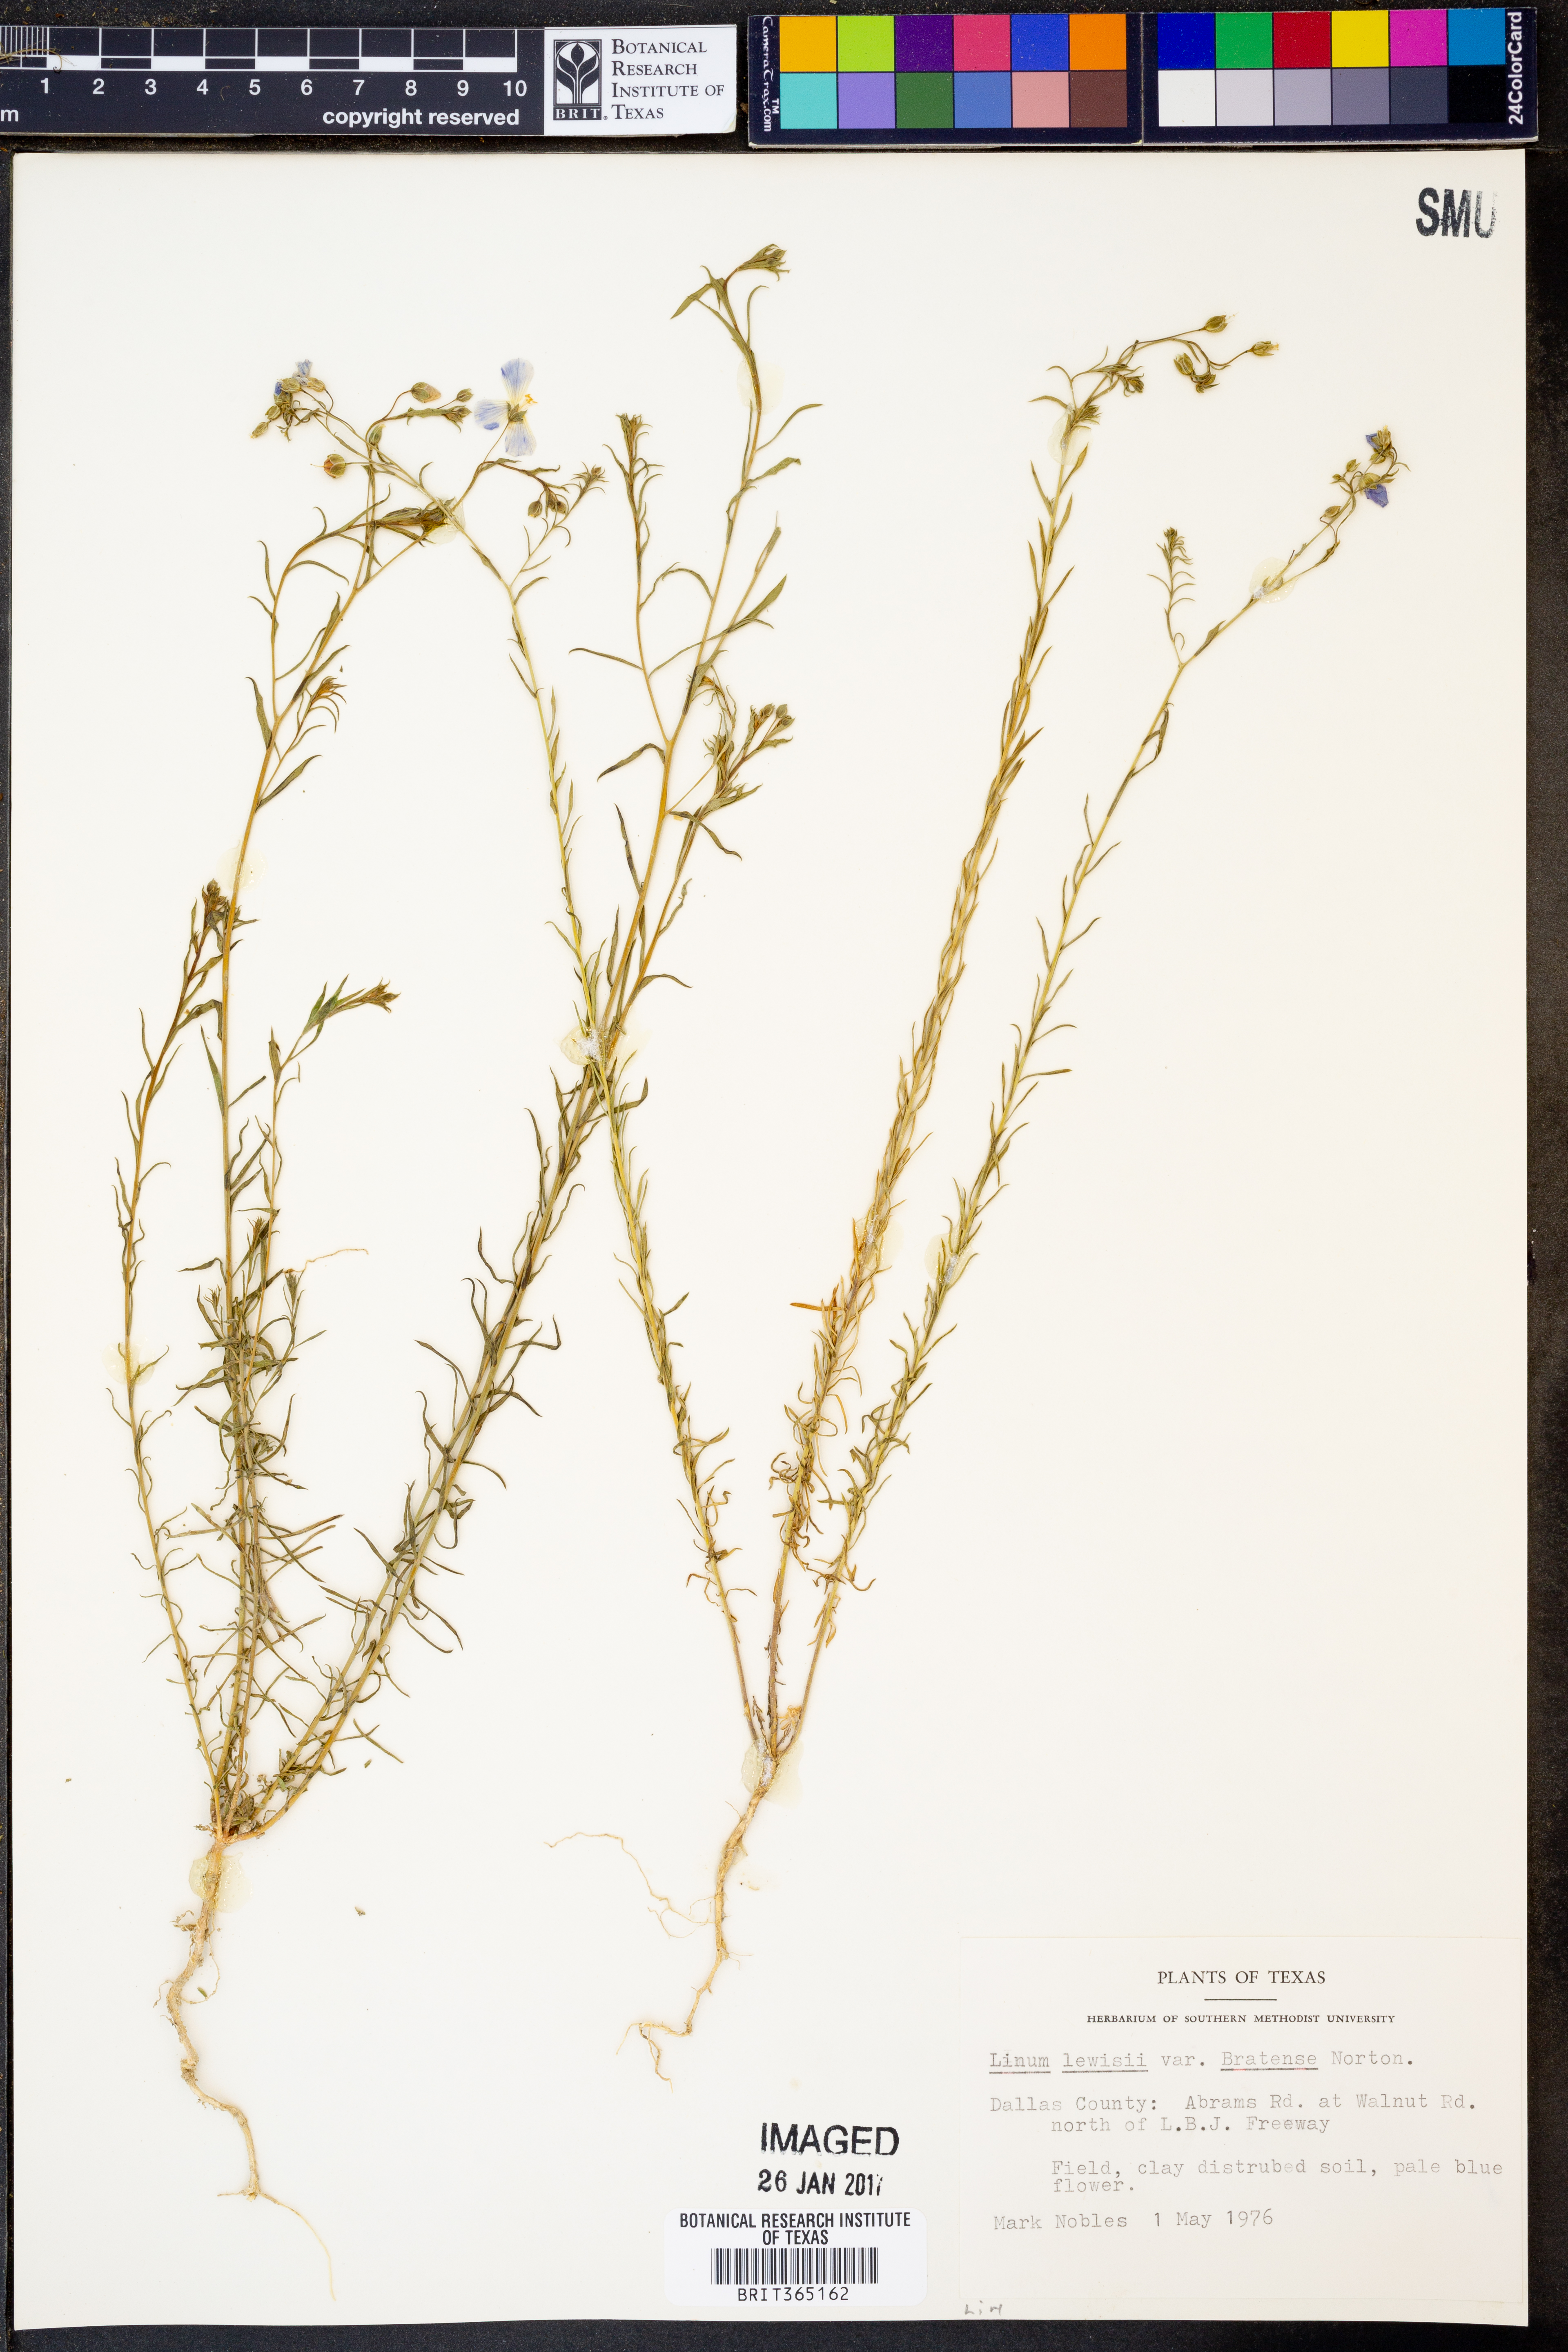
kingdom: Plantae
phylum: Tracheophyta
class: Magnoliopsida
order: Malpighiales
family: Linaceae
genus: Linum
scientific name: Linum pratense
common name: Norton's flax
